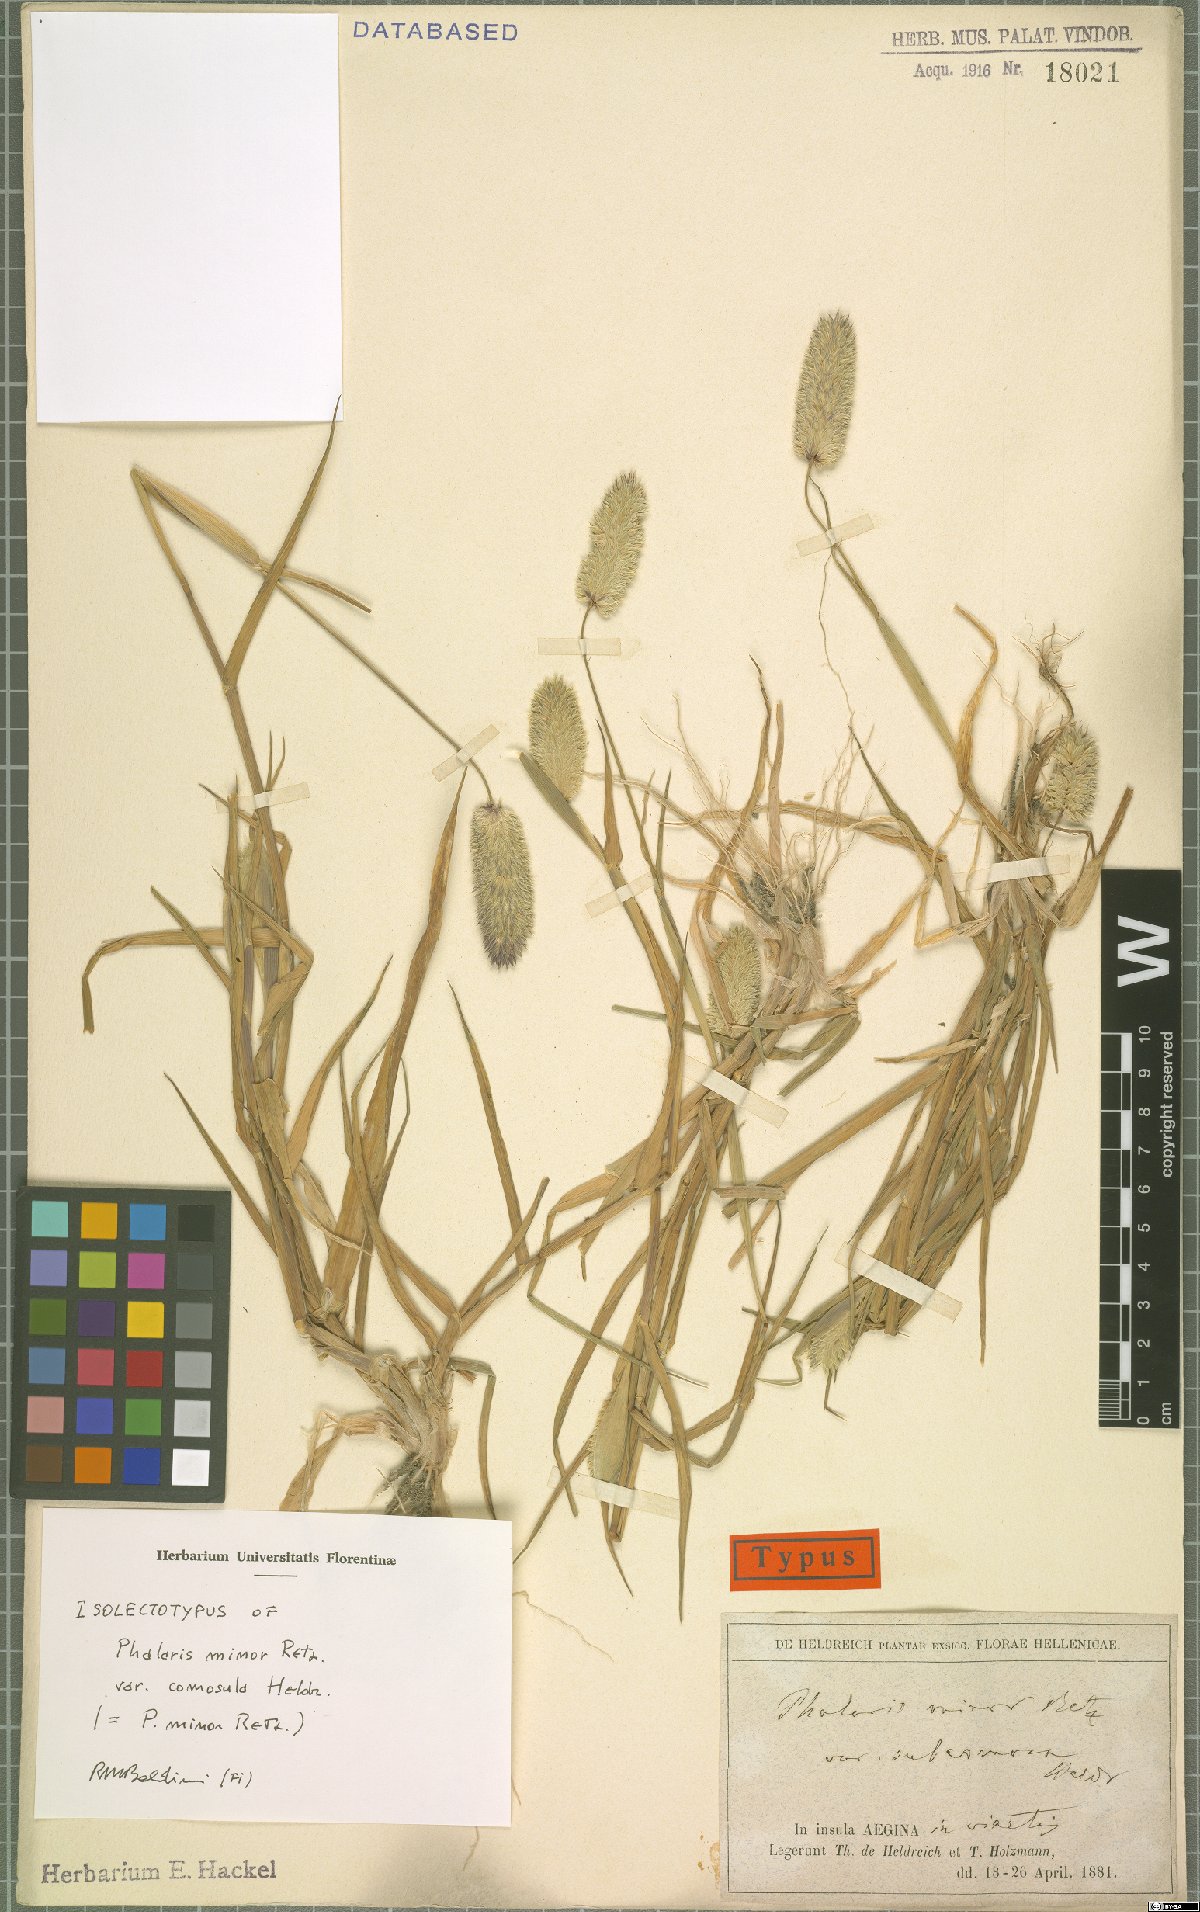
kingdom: Plantae
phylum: Tracheophyta
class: Liliopsida
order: Poales
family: Poaceae
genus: Phalaris
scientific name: Phalaris minor
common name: Littleseed canarygrass
